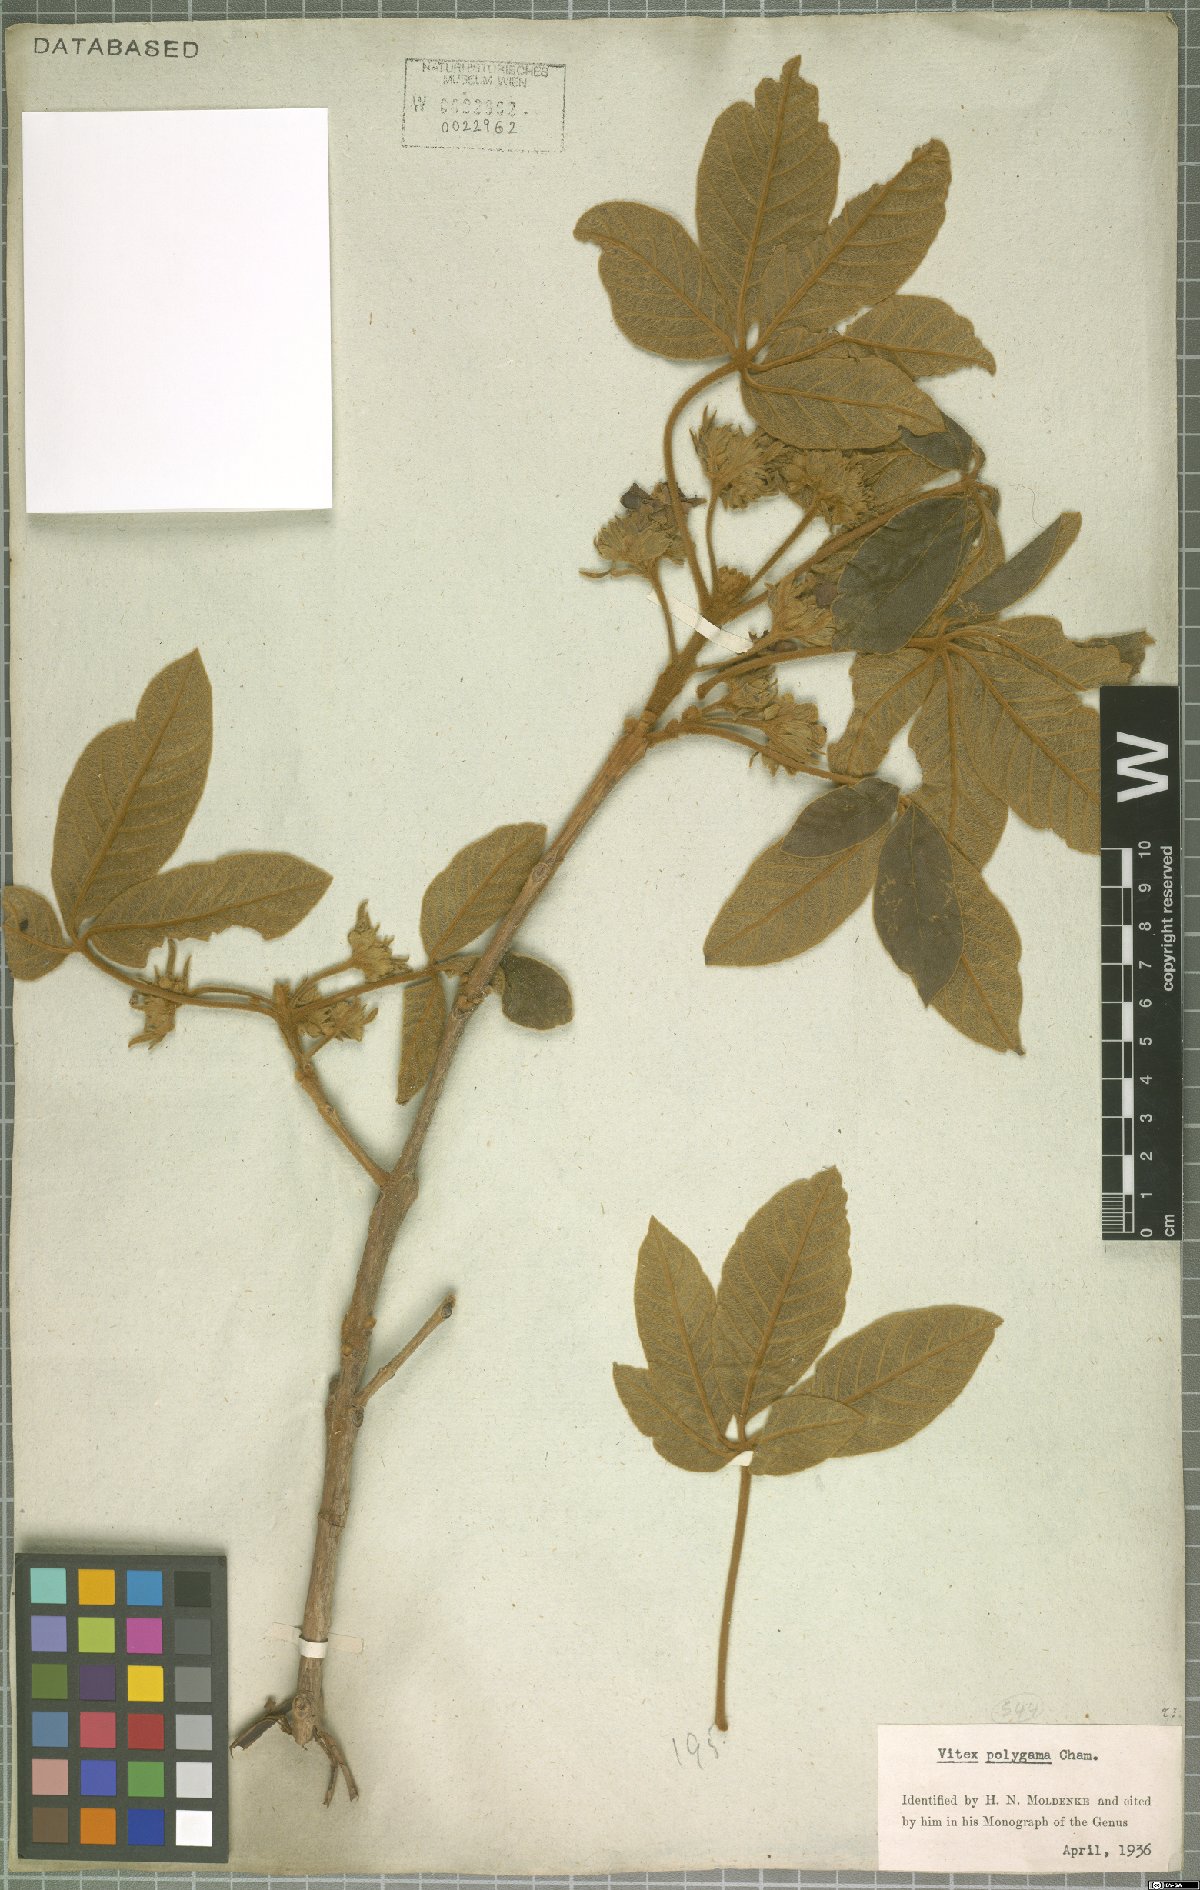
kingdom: Plantae
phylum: Tracheophyta
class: Magnoliopsida
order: Lamiales
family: Lamiaceae
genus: Vitex
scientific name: Vitex polygama
